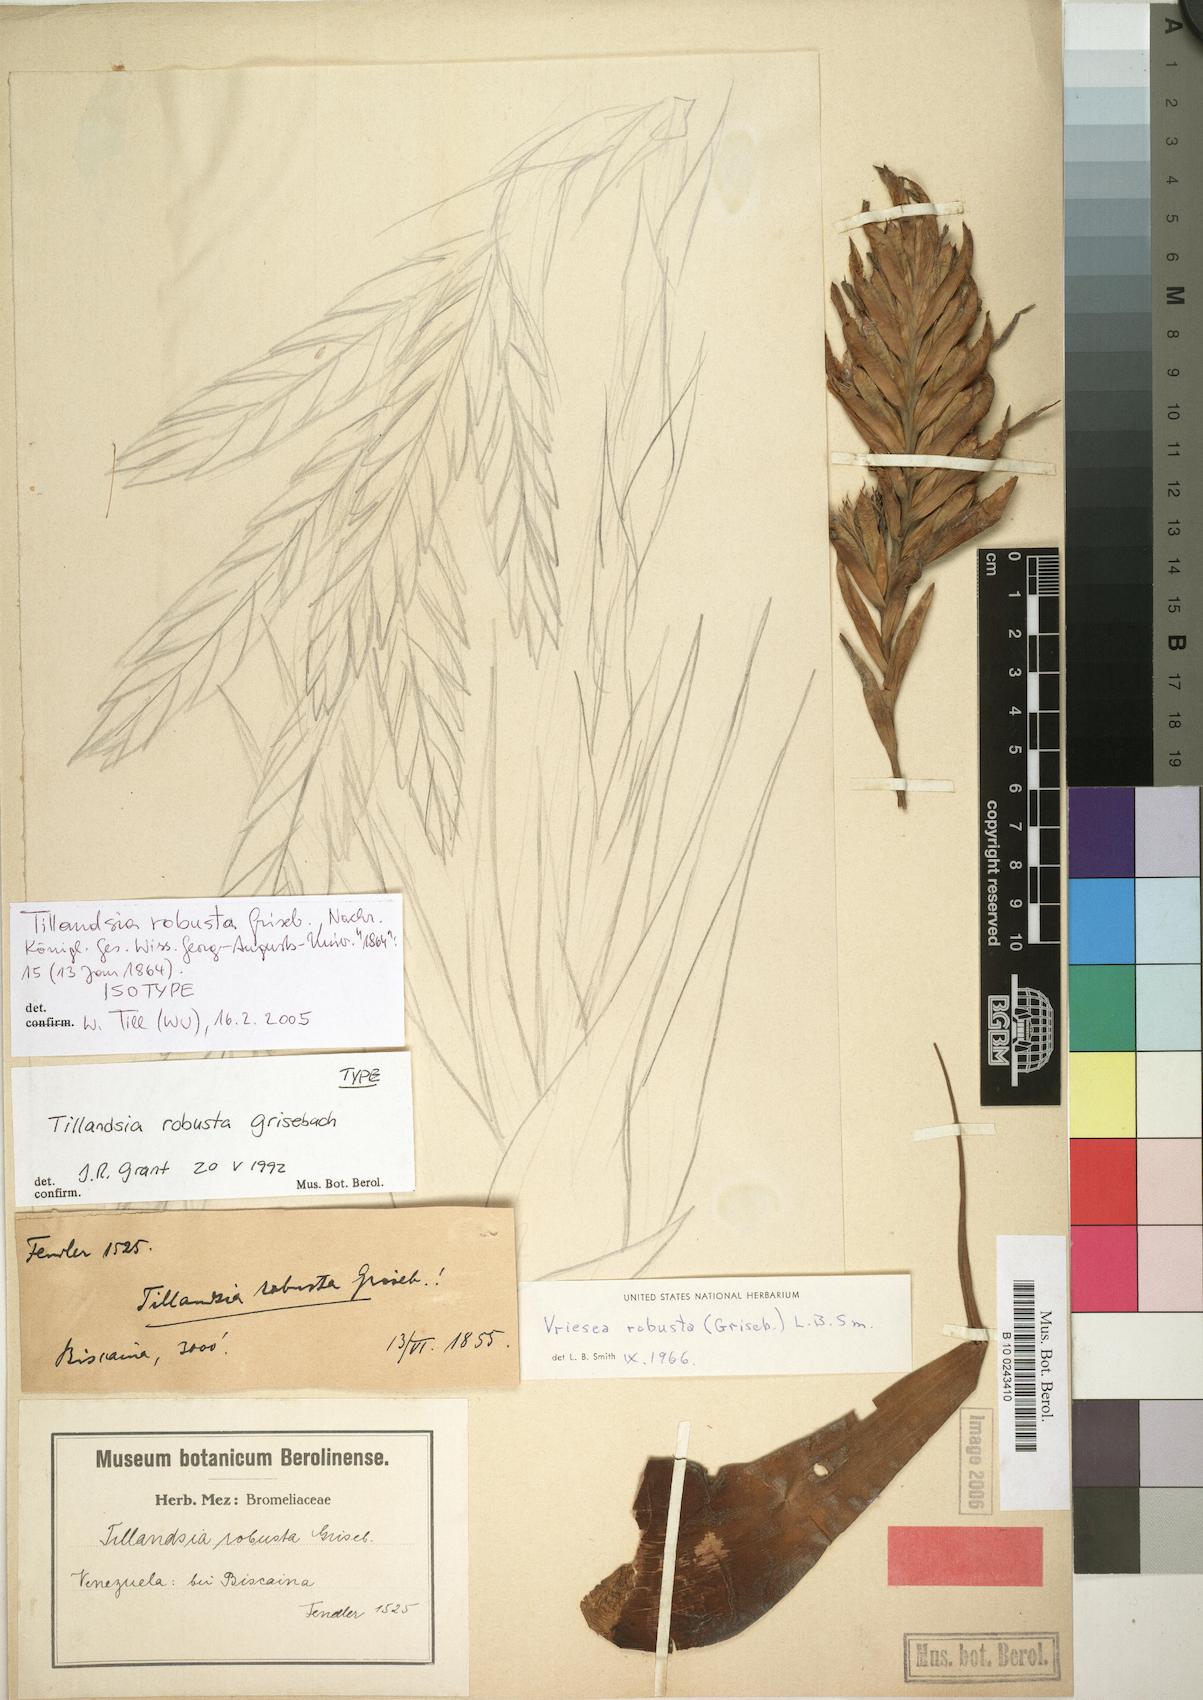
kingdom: Plantae
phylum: Tracheophyta
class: Liliopsida
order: Poales
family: Bromeliaceae
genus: Vriesea
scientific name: Vriesea robusta
